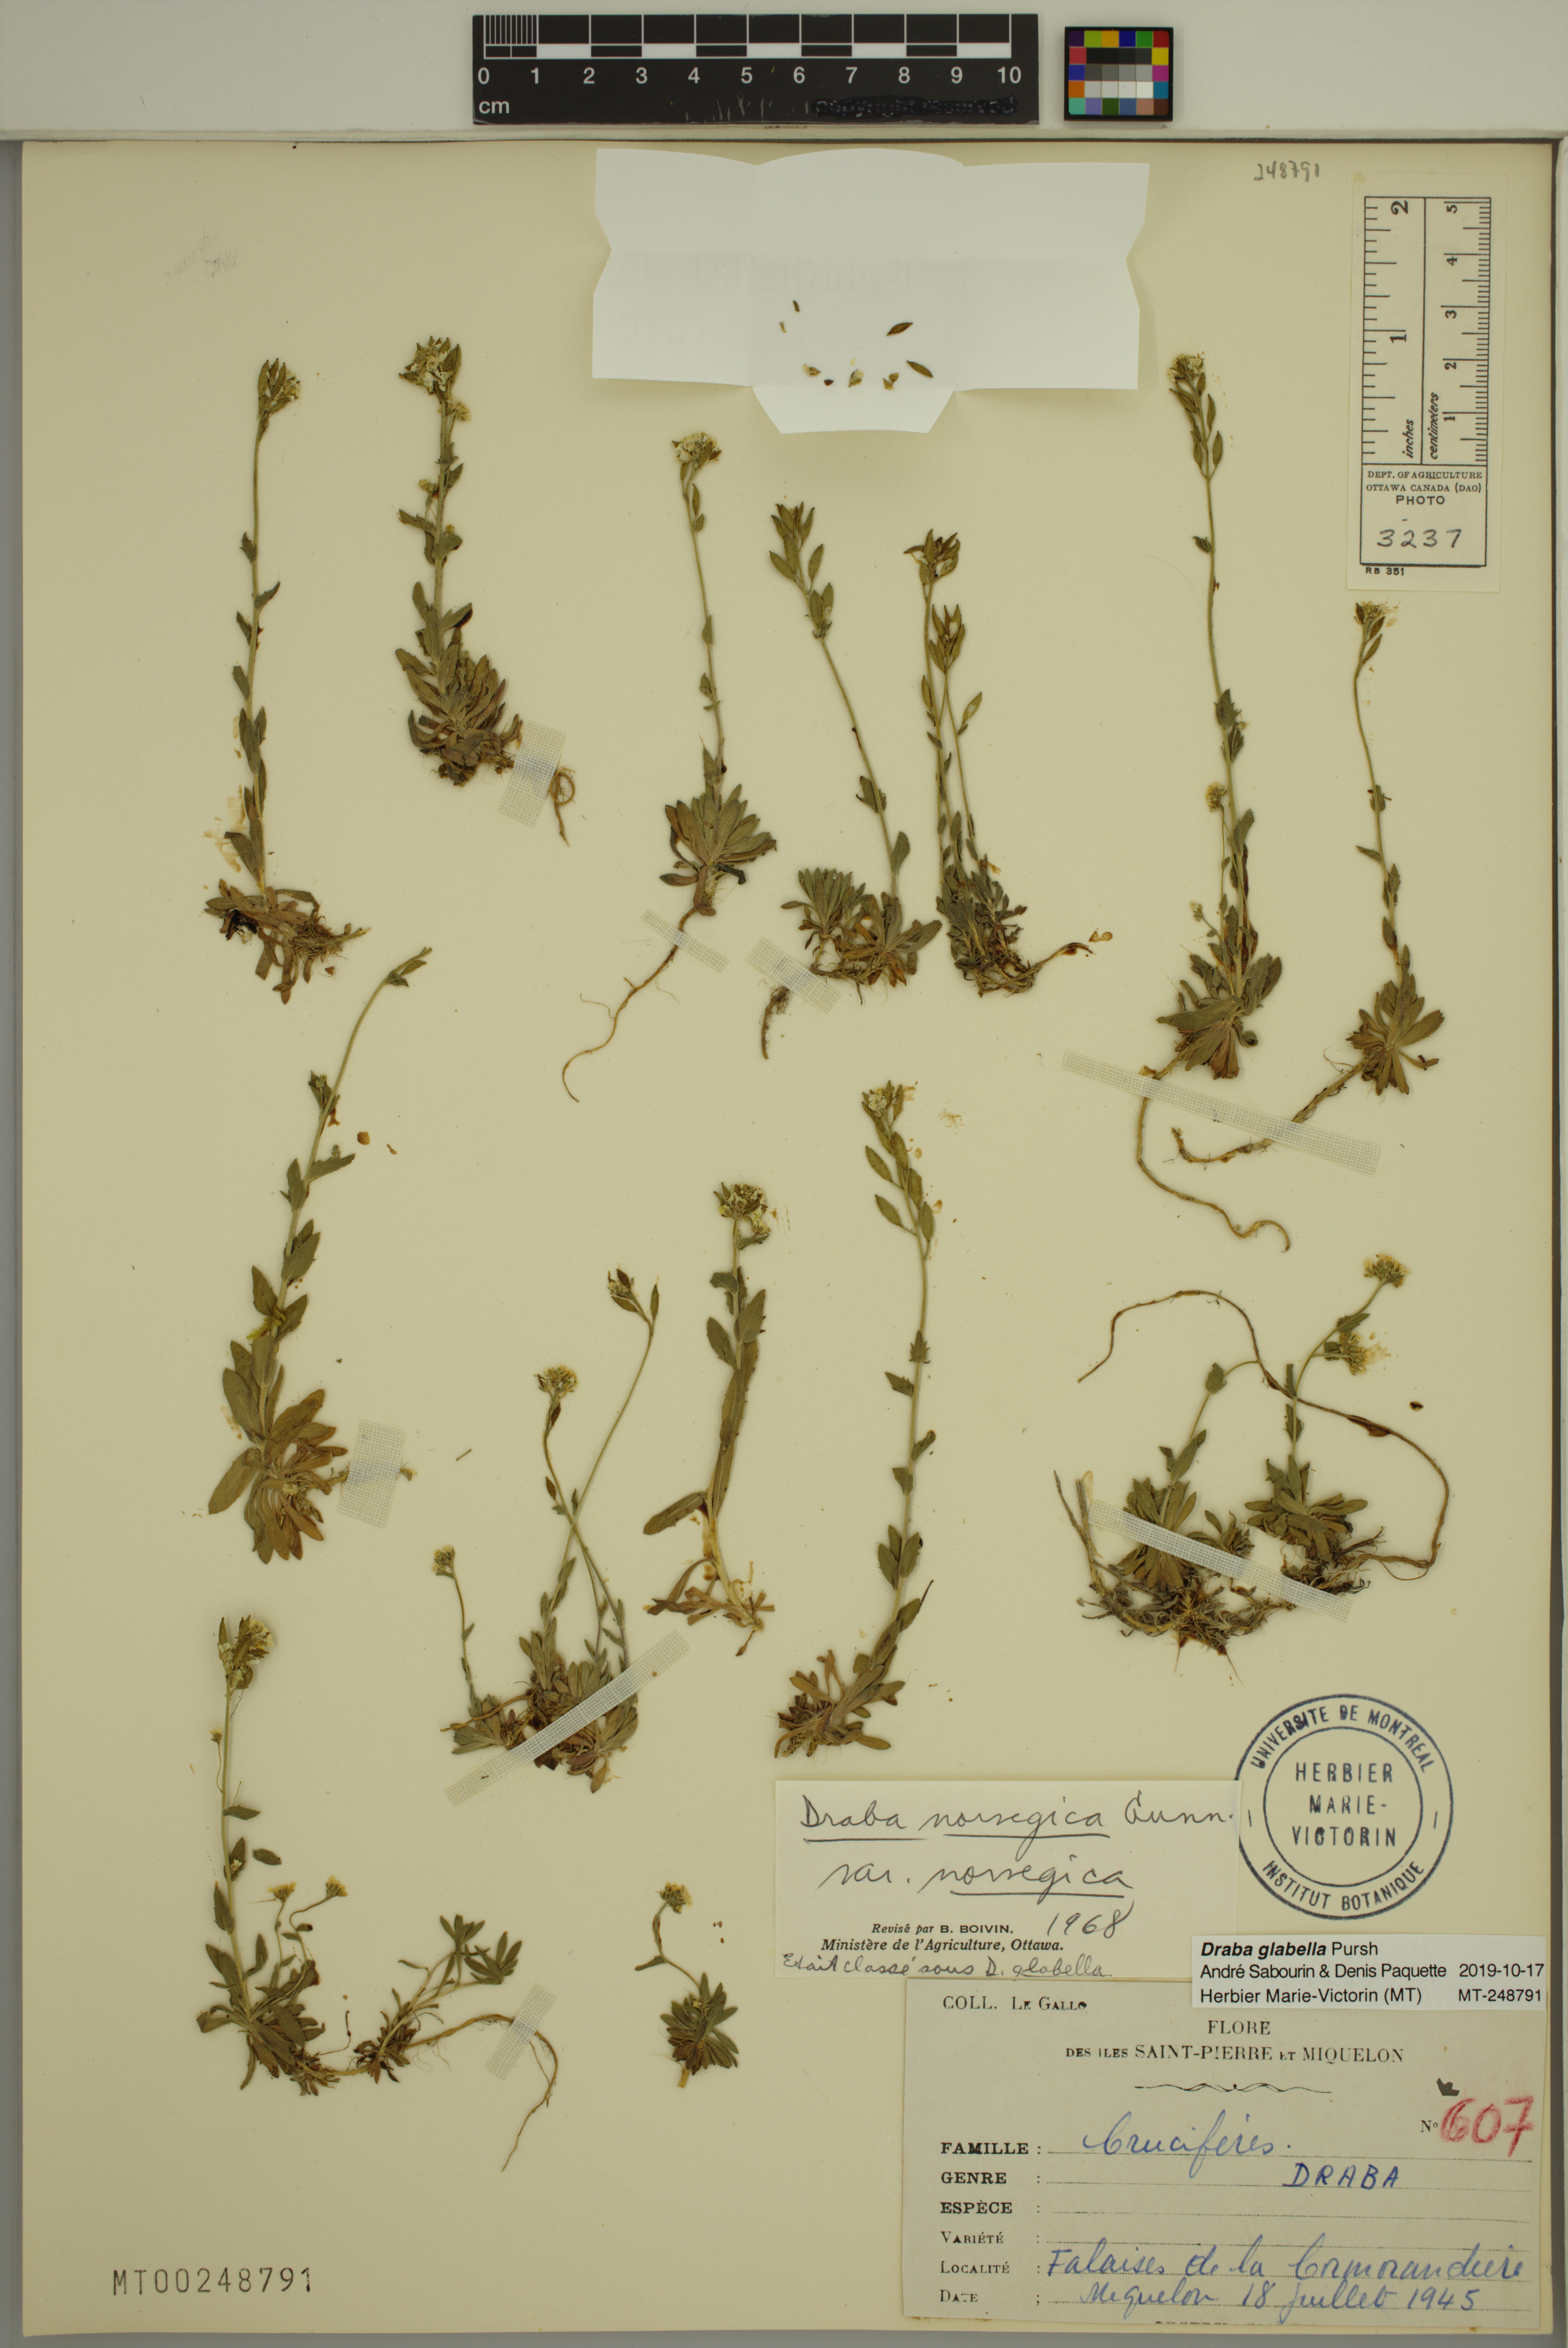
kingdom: Plantae
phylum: Tracheophyta
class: Magnoliopsida
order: Brassicales
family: Brassicaceae
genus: Draba
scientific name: Draba glabella
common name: Glaucous draba
